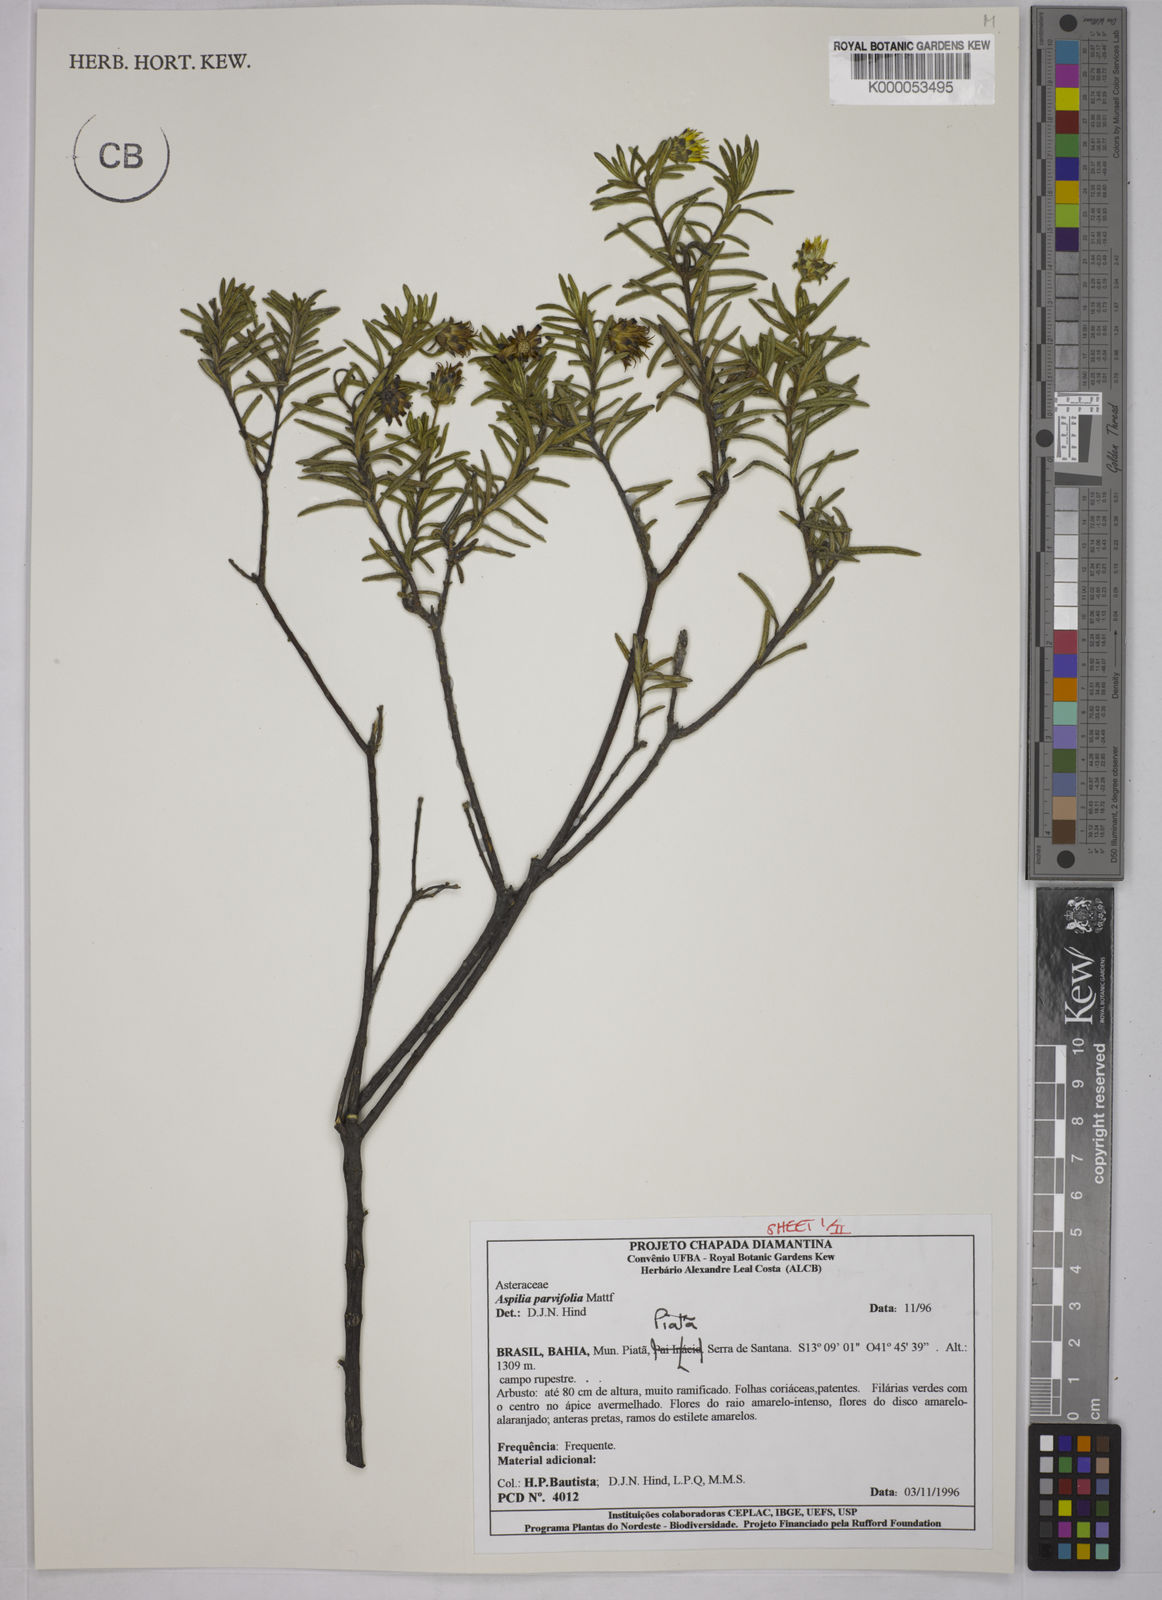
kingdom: Plantae
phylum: Tracheophyta
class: Magnoliopsida
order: Asterales
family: Asteraceae
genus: Aspilia
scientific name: Aspilia foliosa
